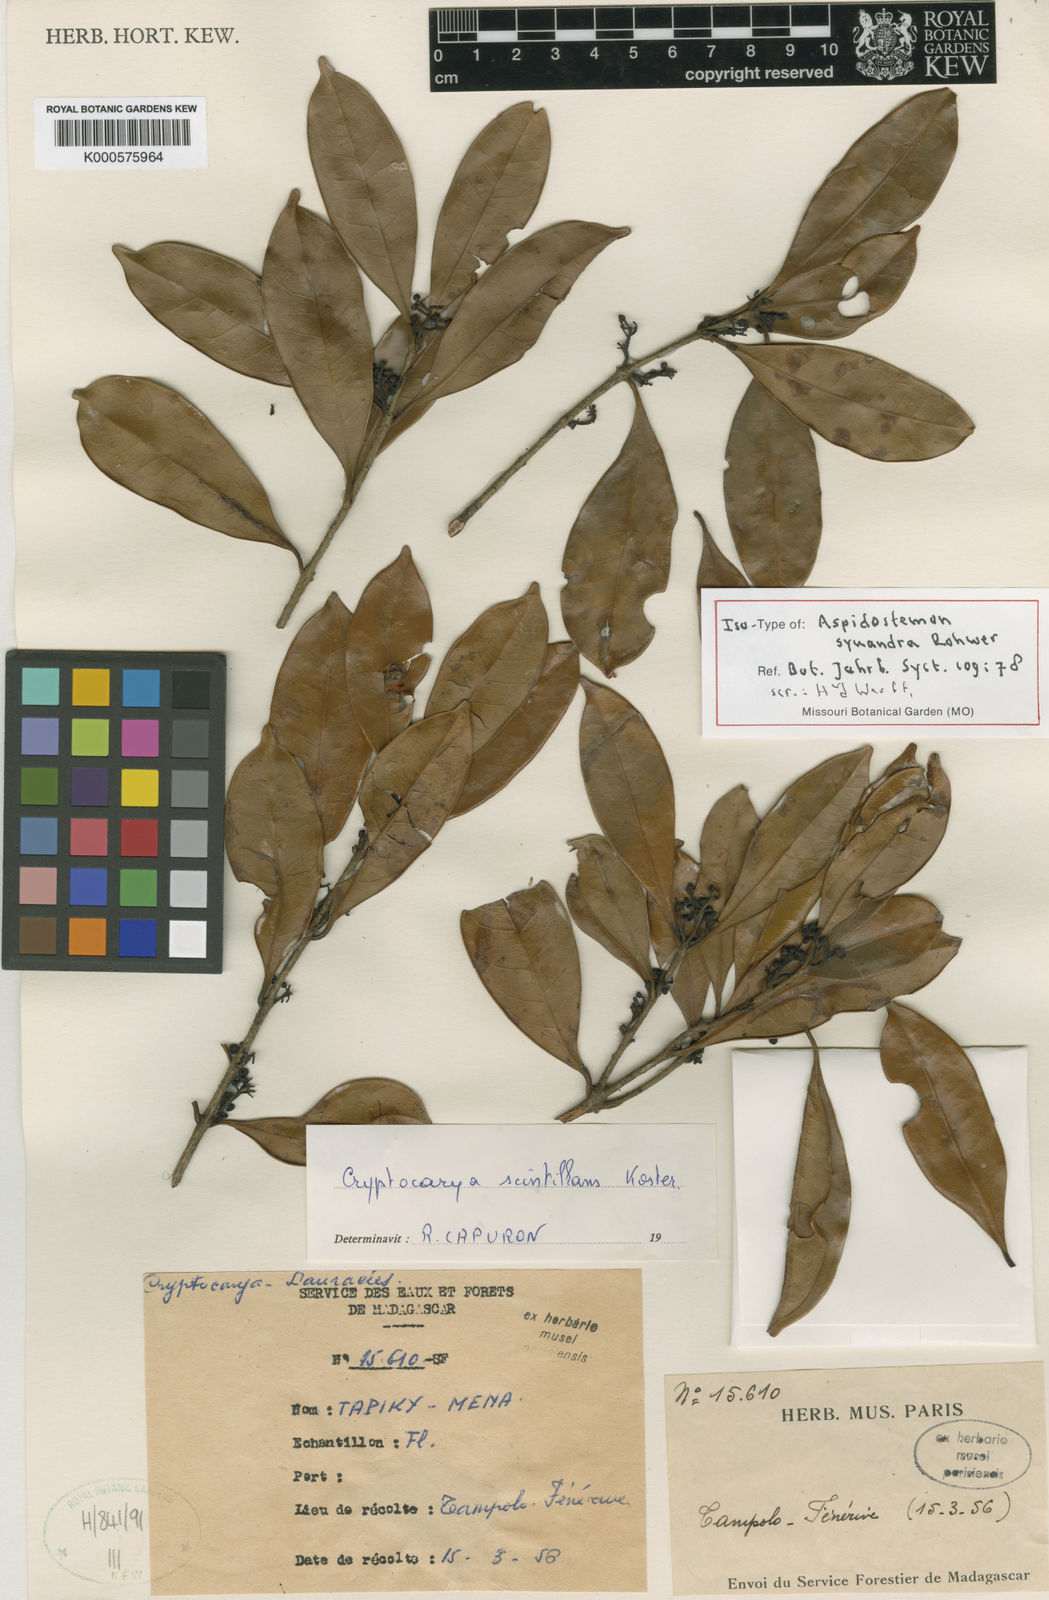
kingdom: Plantae
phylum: Tracheophyta
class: Magnoliopsida
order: Laurales
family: Lauraceae
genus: Aspidostemon
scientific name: Aspidostemon synandra
